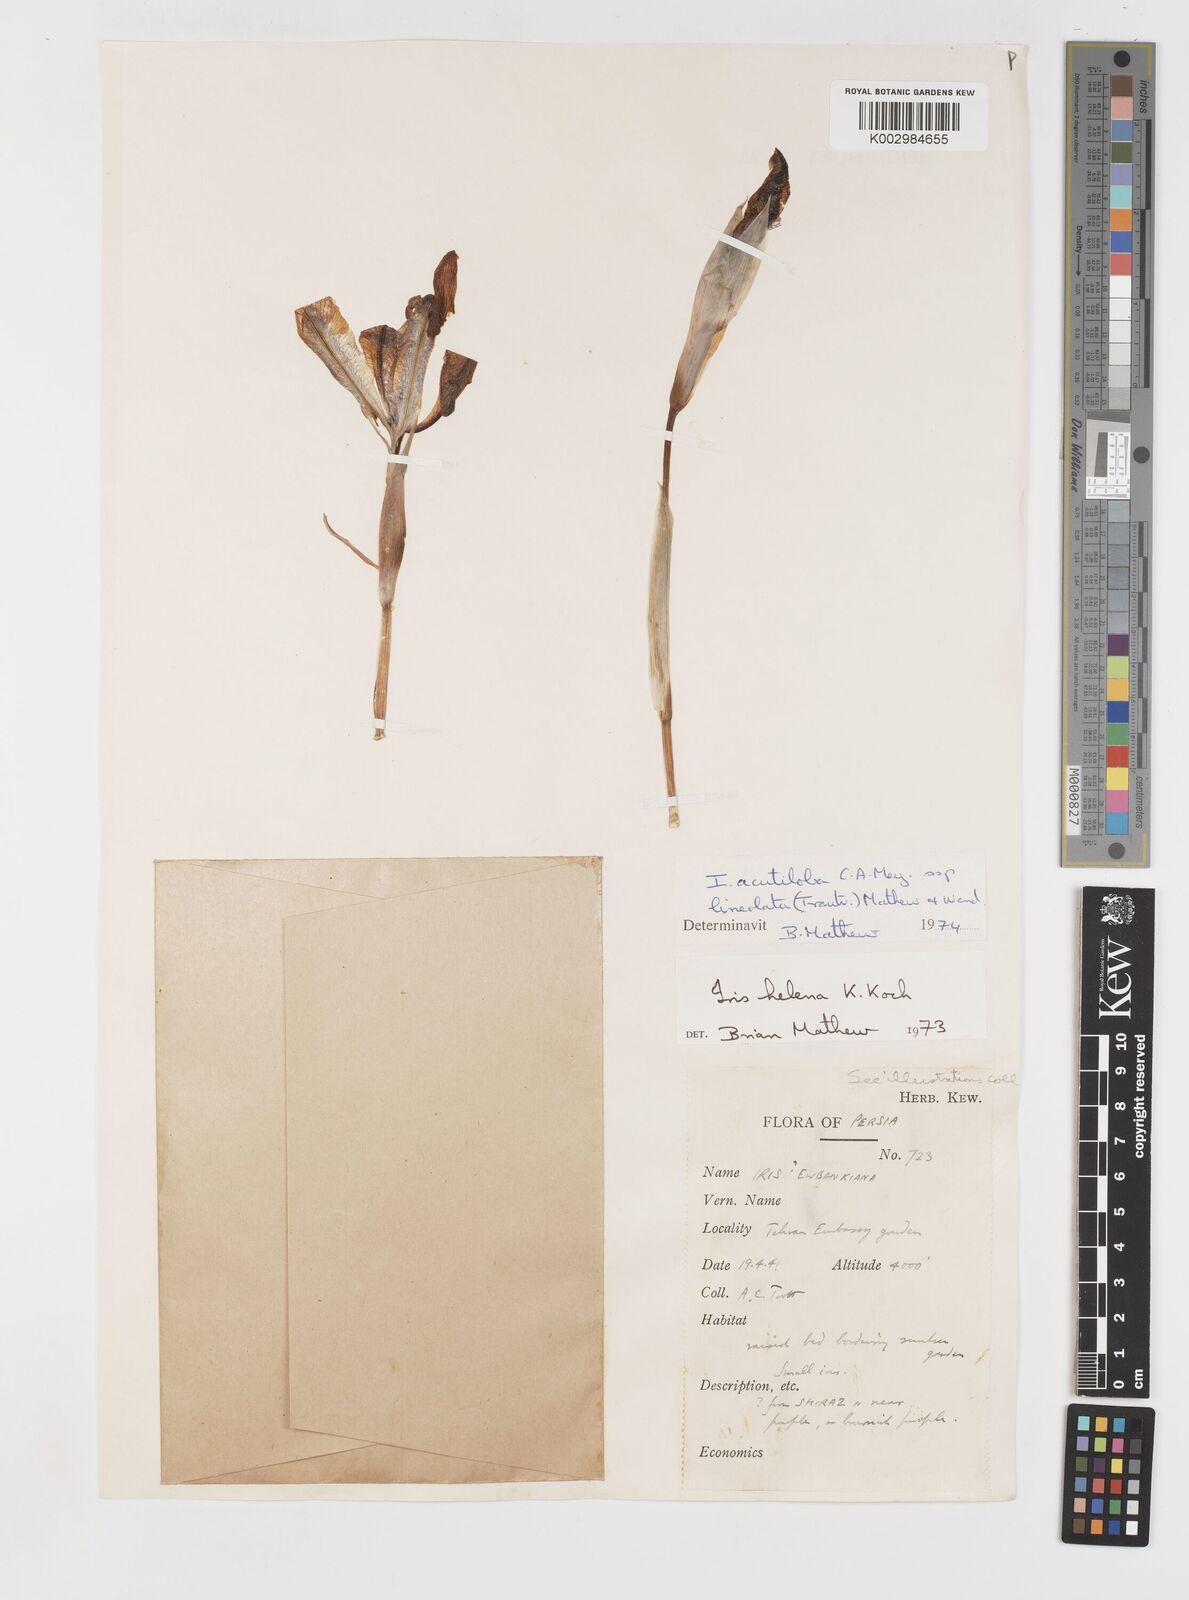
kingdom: Plantae
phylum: Tracheophyta
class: Liliopsida
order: Asparagales
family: Iridaceae
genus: Iris
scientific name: Iris acutiloba
